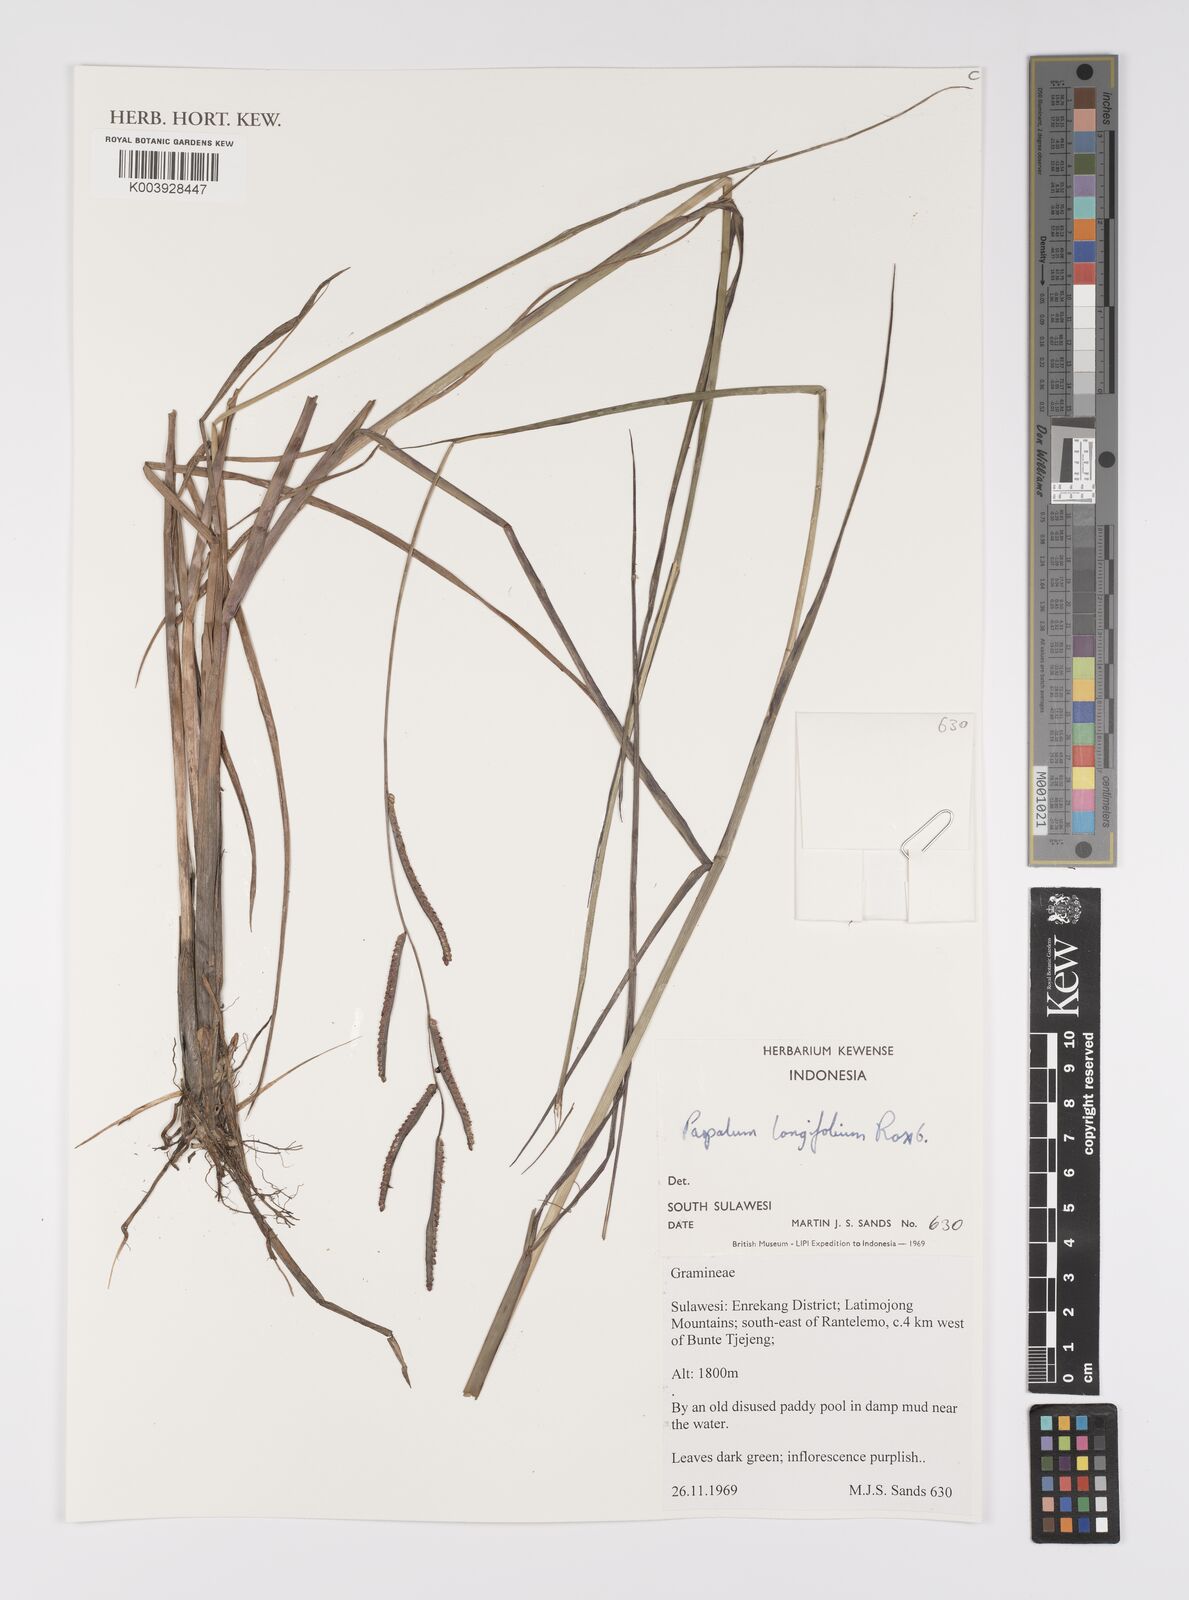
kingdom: Plantae
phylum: Tracheophyta
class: Liliopsida
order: Poales
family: Poaceae
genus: Paspalum
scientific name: Paspalum sumatrense
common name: Long-leaved paspalum
